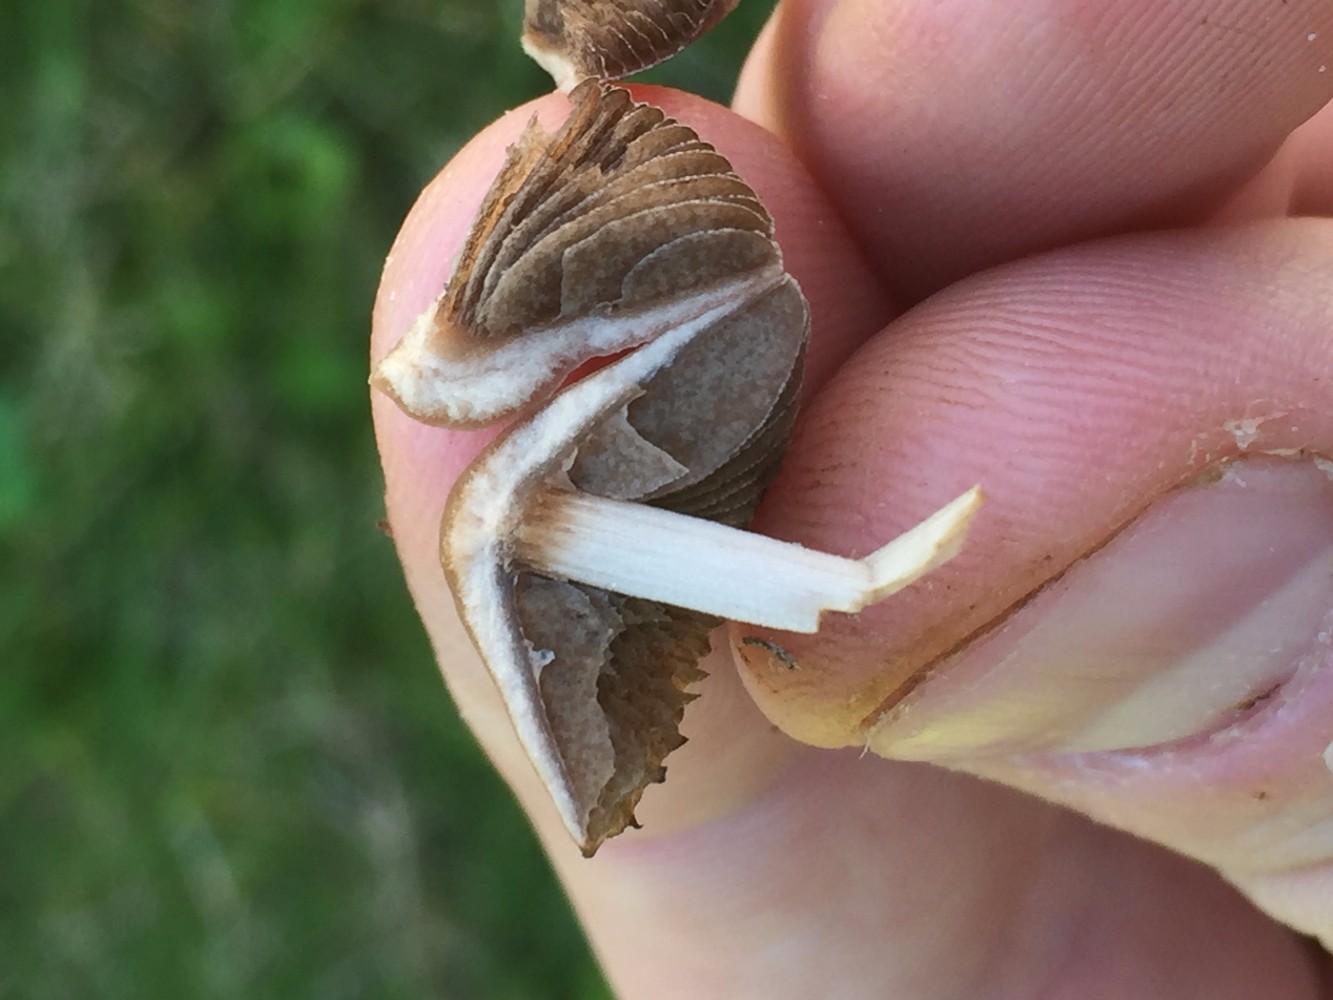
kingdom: Fungi
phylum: Basidiomycota
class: Agaricomycetes
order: Agaricales
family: Psathyrellaceae
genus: Parasola
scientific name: Parasola conopilea
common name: kegle-hjulhat
